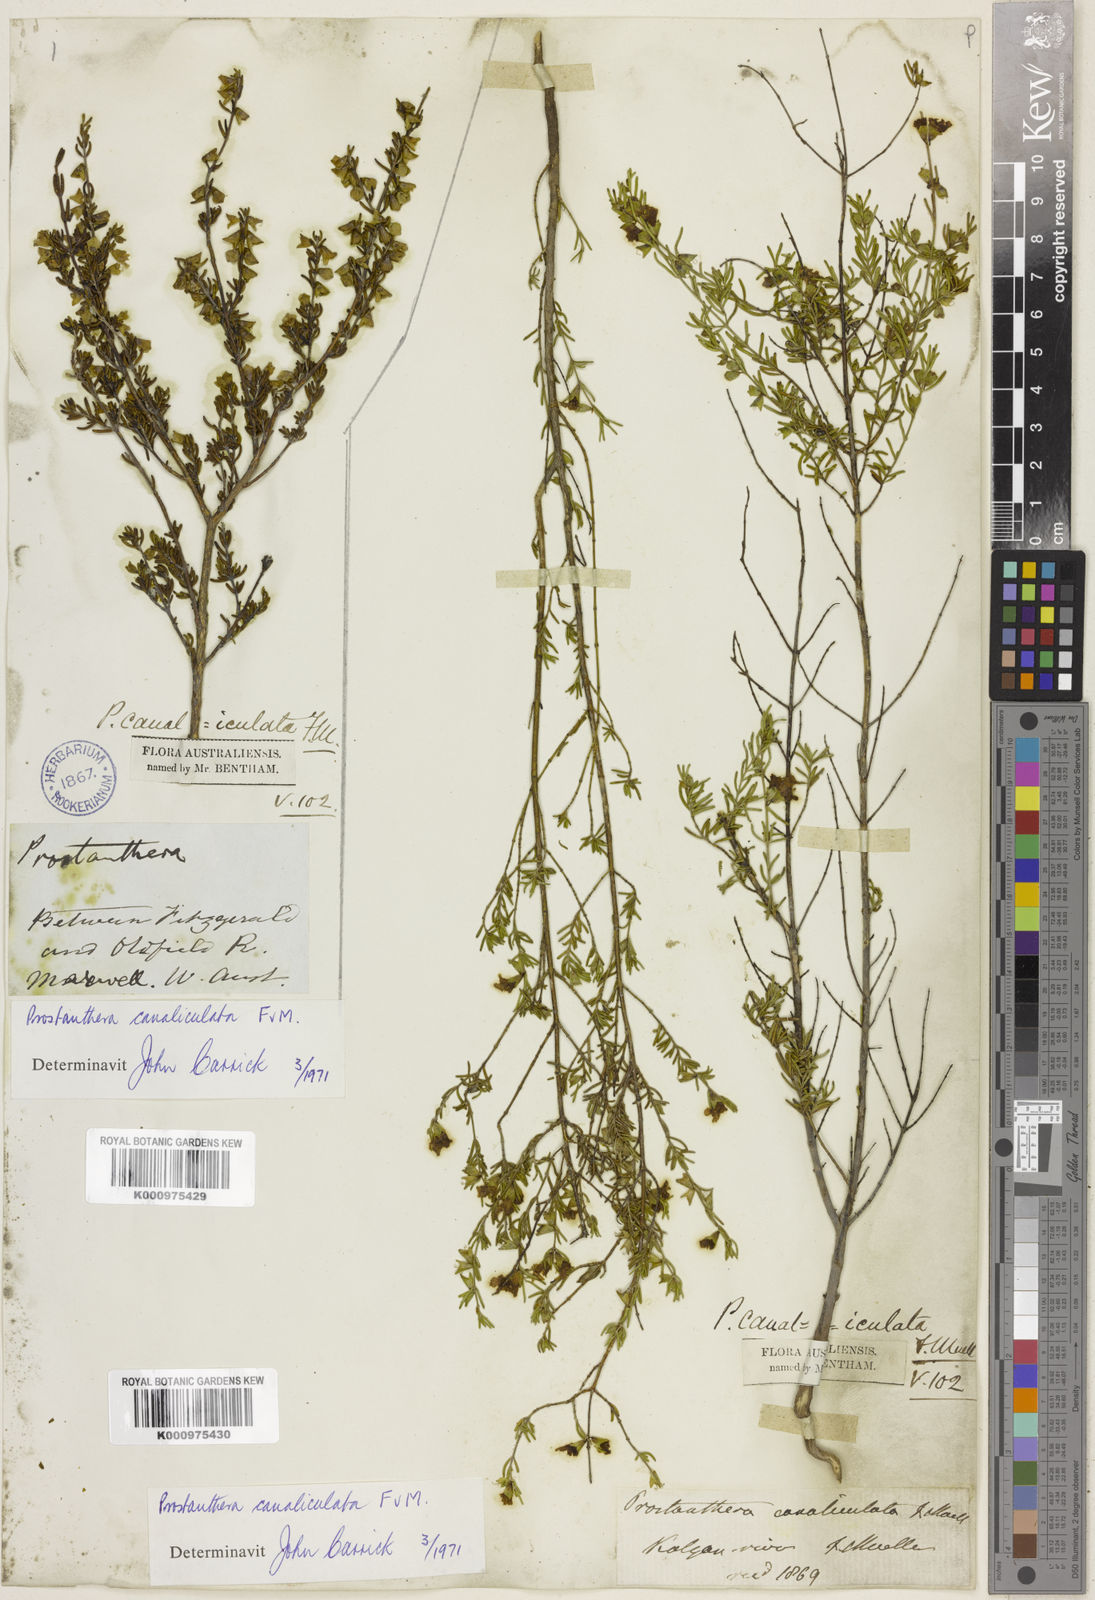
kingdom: Plantae
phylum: Tracheophyta
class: Magnoliopsida
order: Lamiales
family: Lamiaceae
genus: Prostanthera
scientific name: Prostanthera canaliculata
